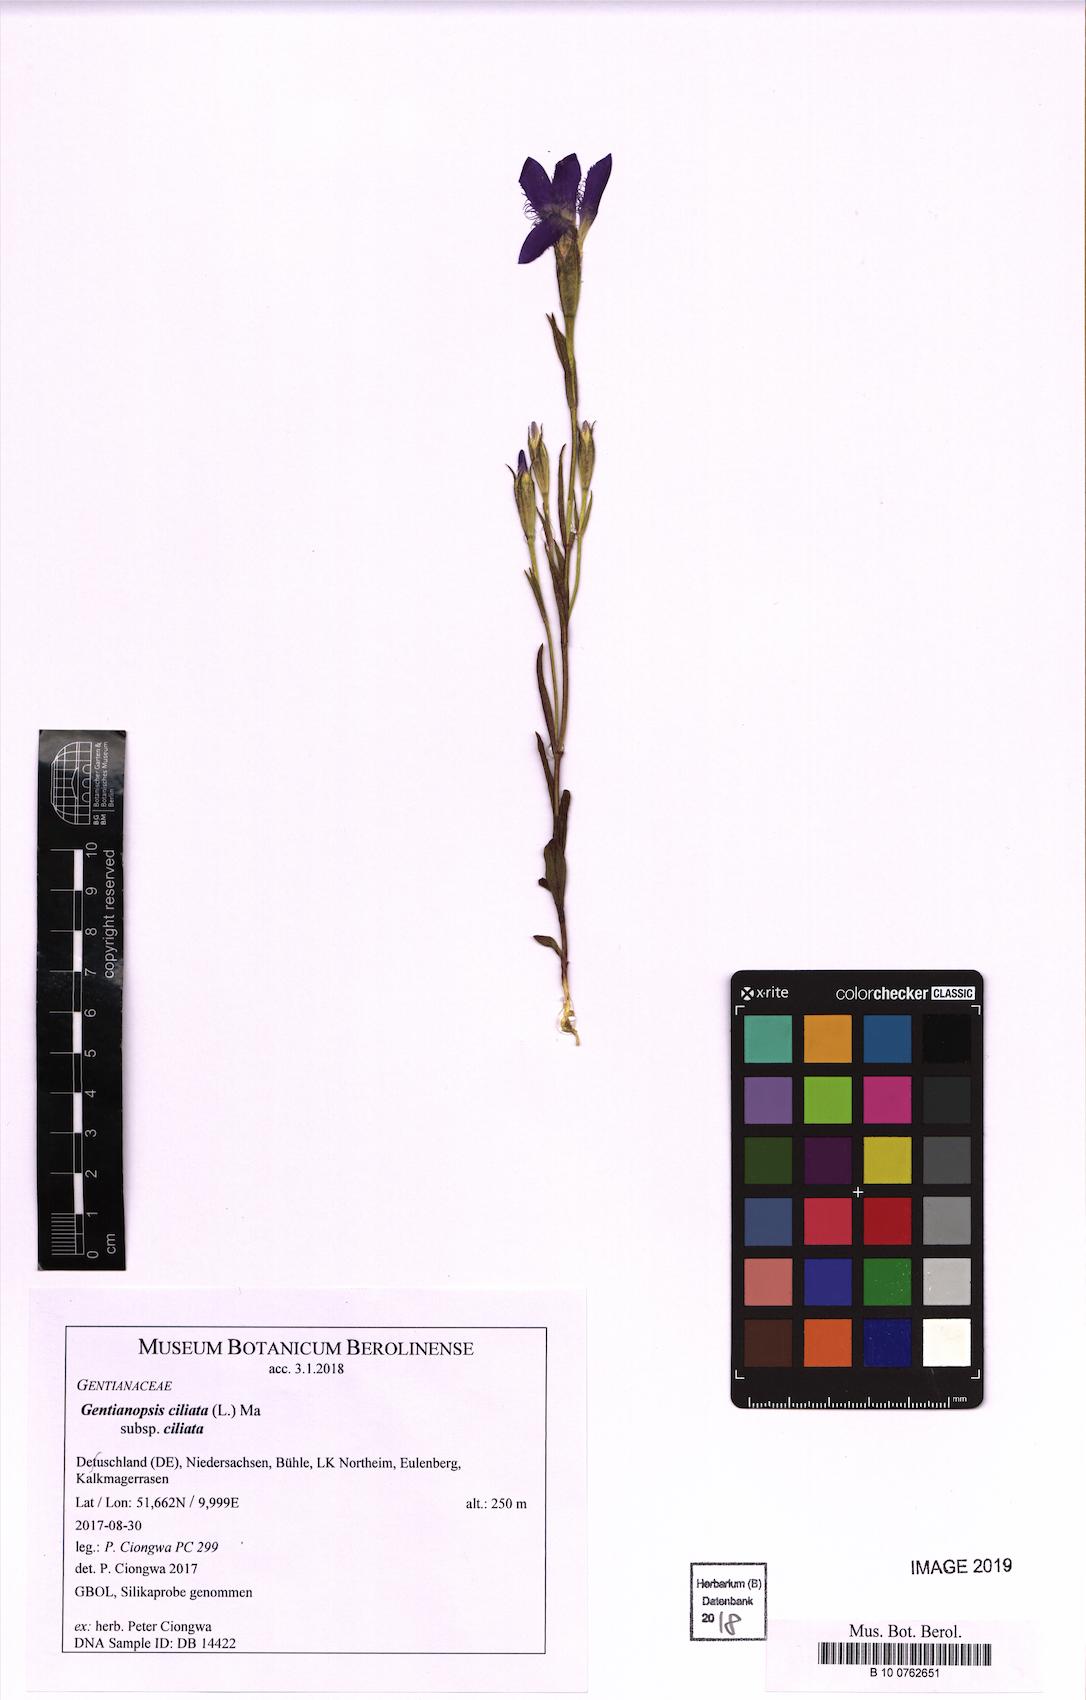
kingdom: Plantae
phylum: Tracheophyta
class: Magnoliopsida
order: Gentianales
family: Gentianaceae
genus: Gentianopsis
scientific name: Gentianopsis ciliata
